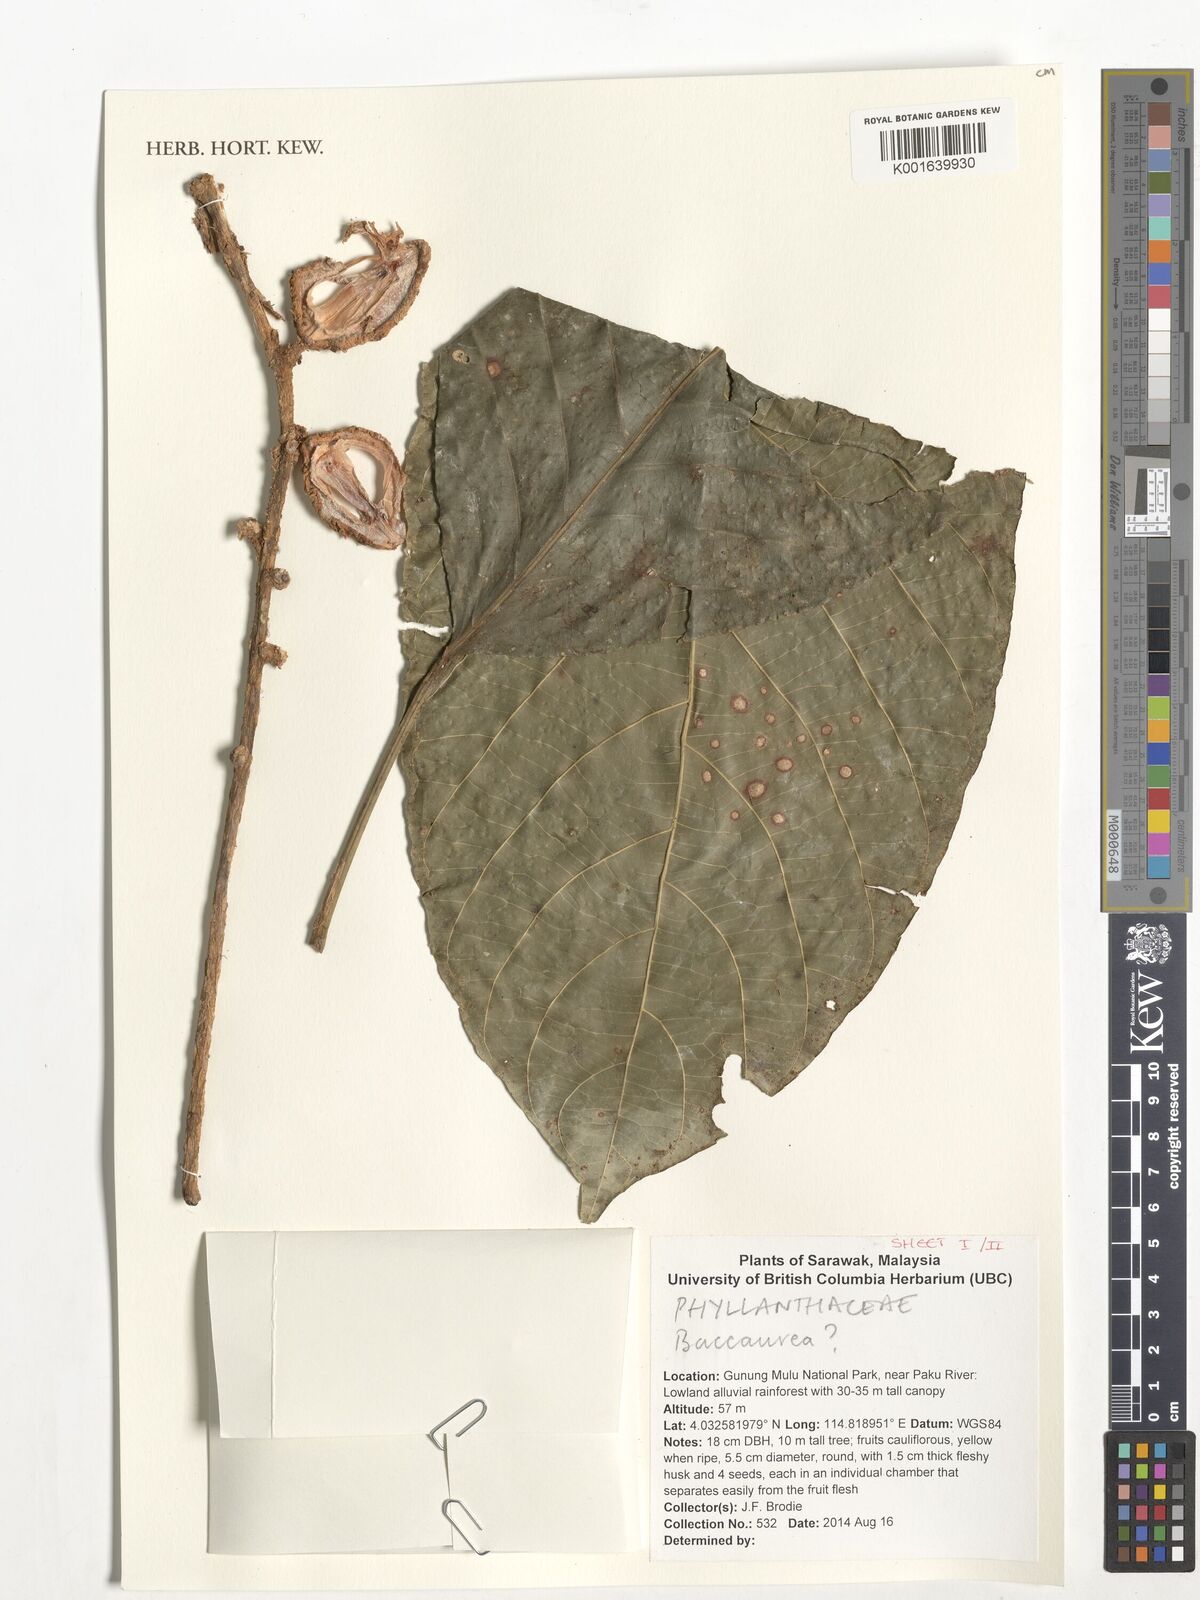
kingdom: Plantae
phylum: Tracheophyta
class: Magnoliopsida
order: Malpighiales
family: Phyllanthaceae
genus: Baccaurea
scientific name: Baccaurea
